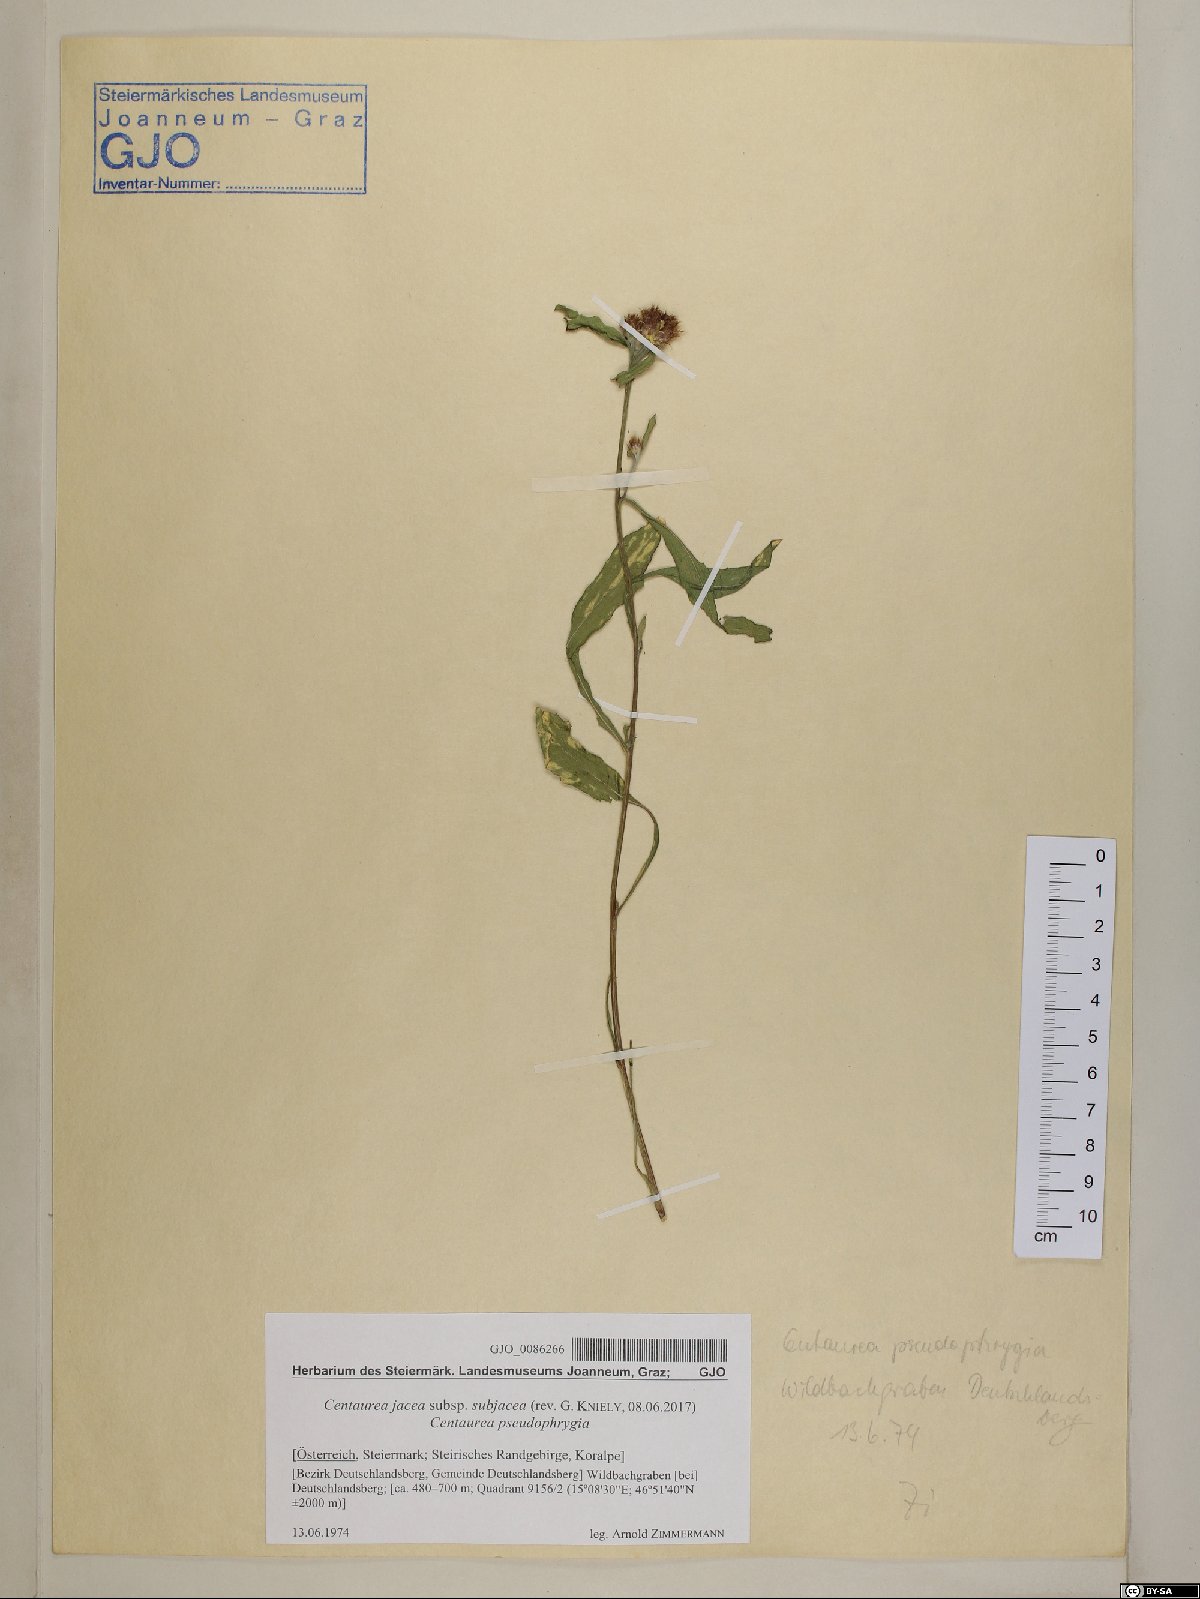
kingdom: Plantae
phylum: Tracheophyta
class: Magnoliopsida
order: Asterales
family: Asteraceae
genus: Centaurea
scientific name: Centaurea preissmannii
